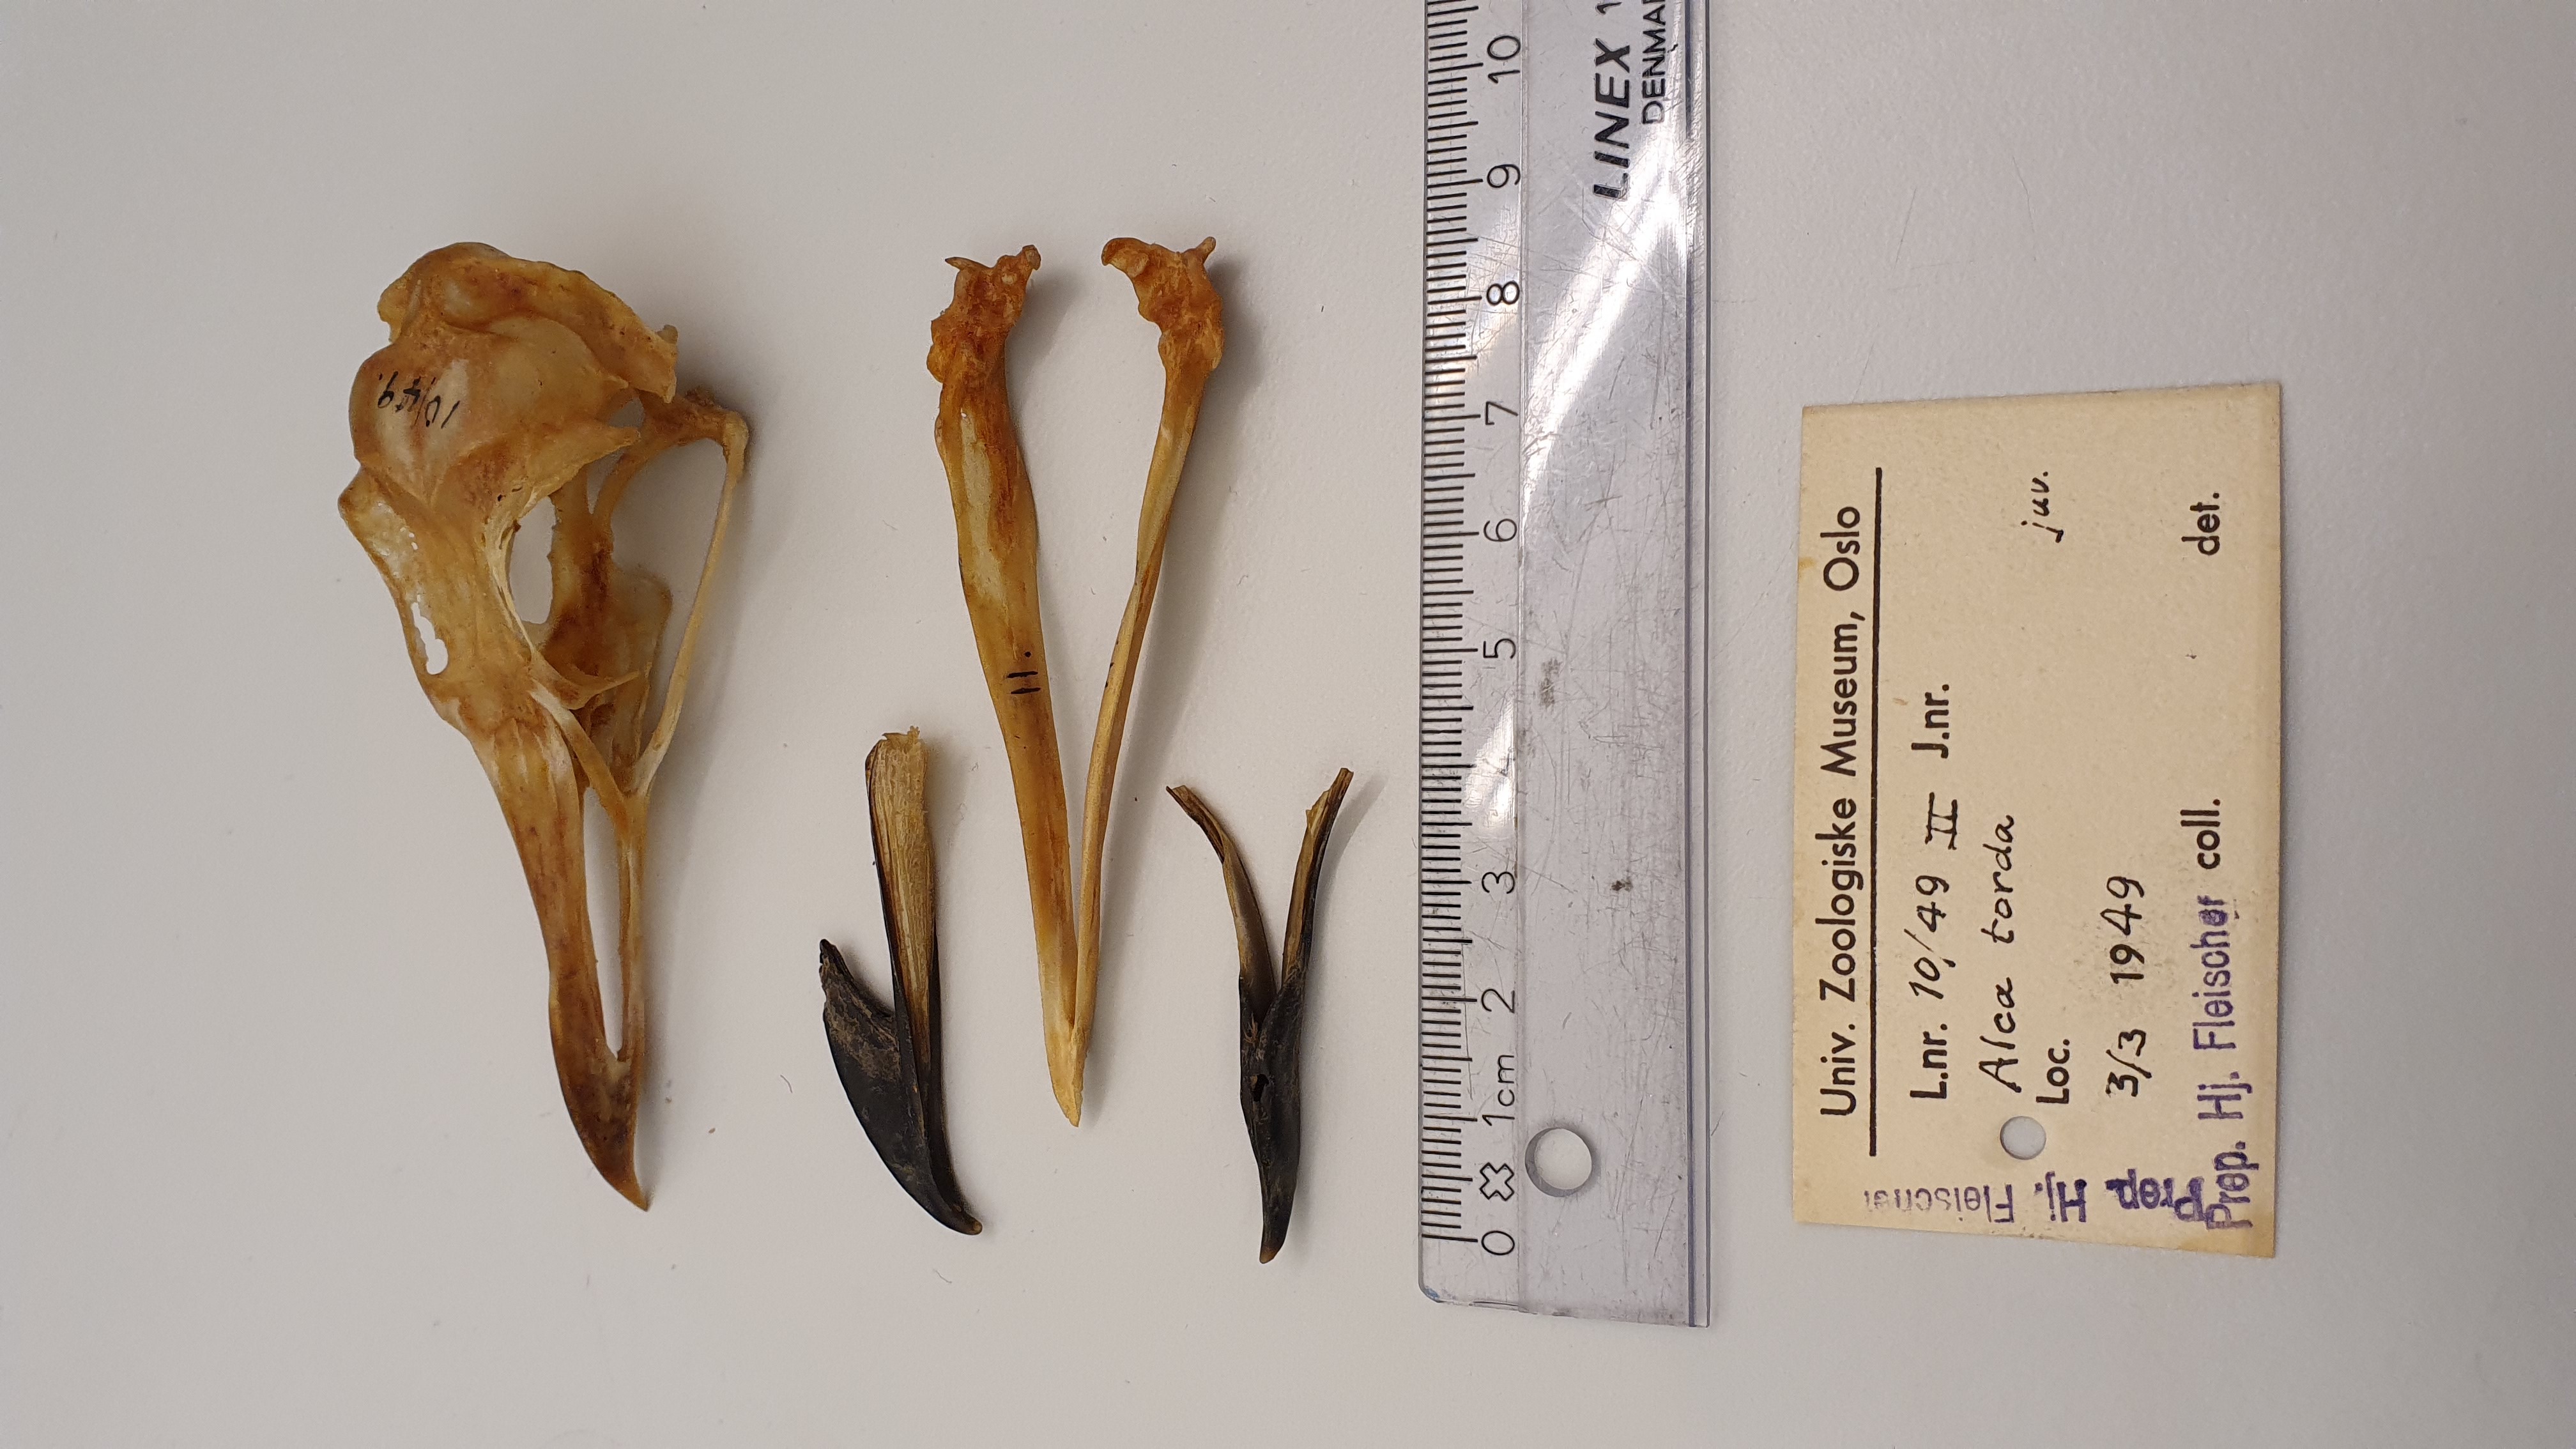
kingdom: Animalia
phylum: Chordata
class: Aves
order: Charadriiformes
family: Alcidae
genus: Alca
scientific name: Alca torda
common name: Razorbill
